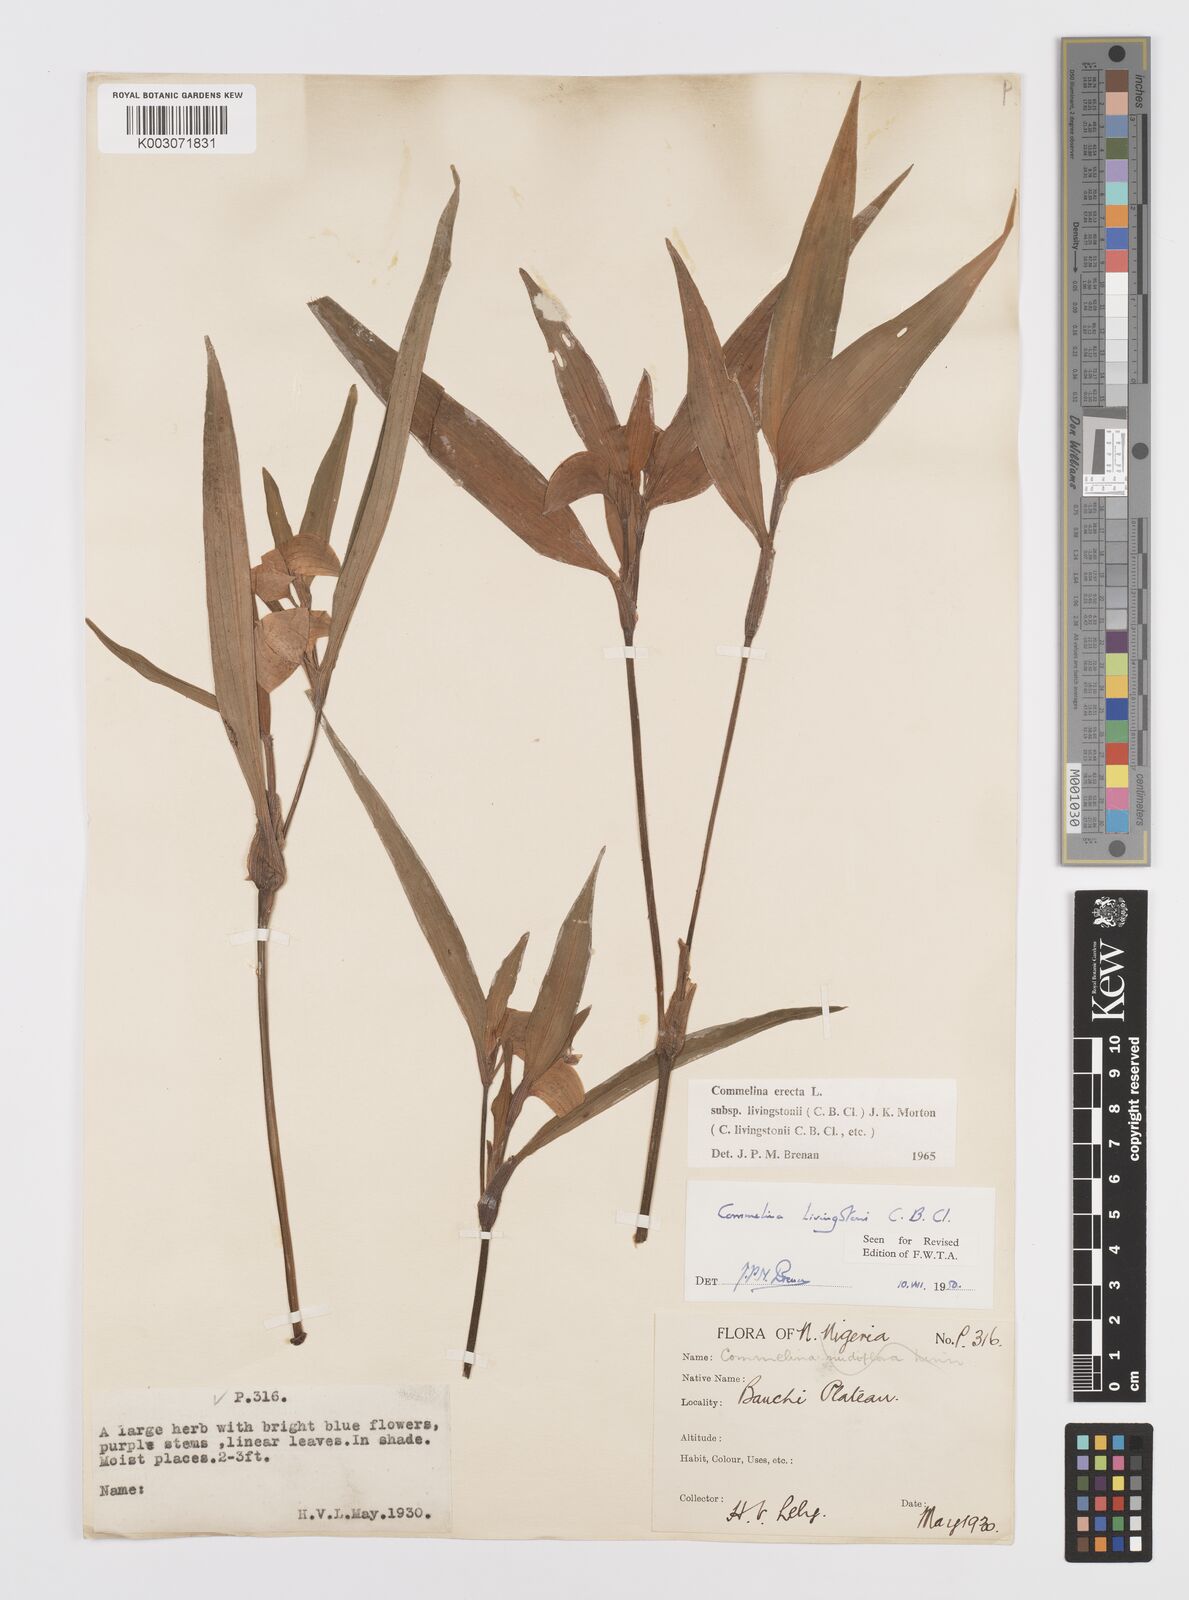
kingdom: Plantae
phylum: Tracheophyta
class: Liliopsida
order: Commelinales
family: Commelinaceae
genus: Commelina
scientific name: Commelina erecta
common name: Blousel blommetjie
